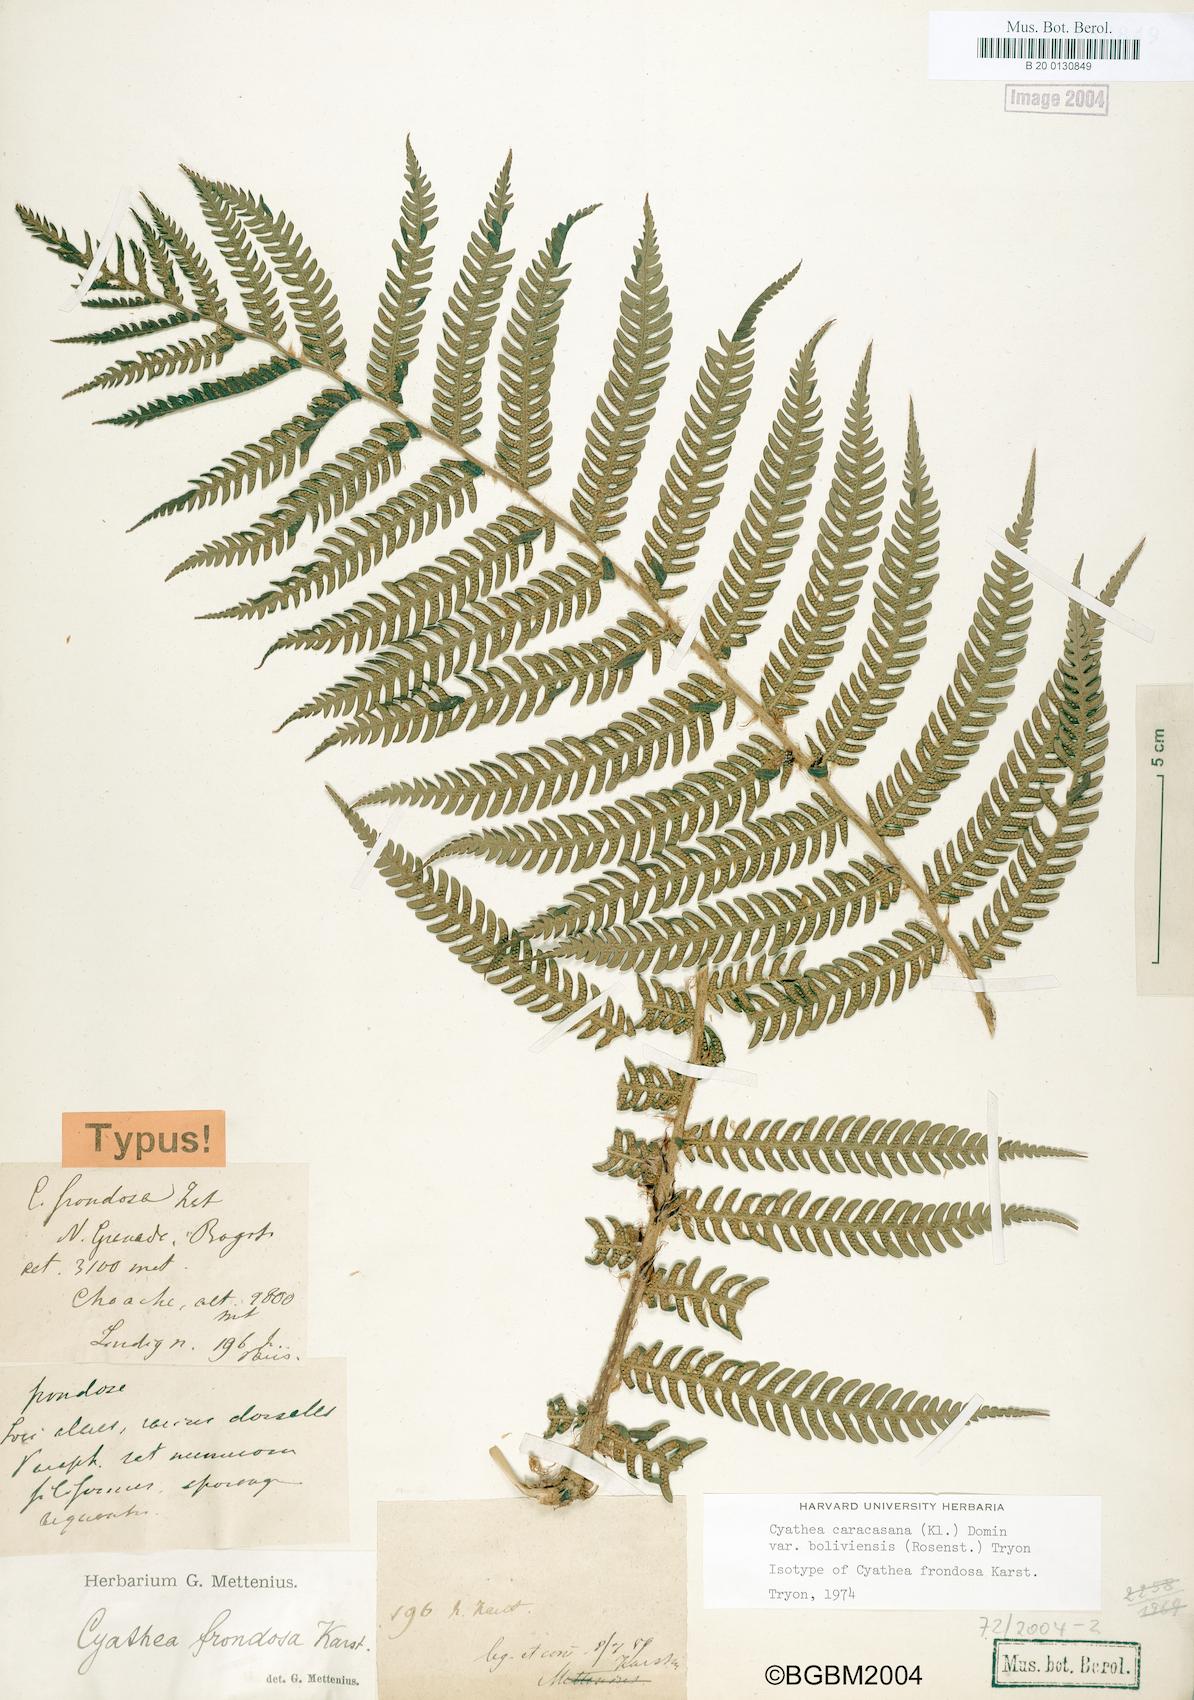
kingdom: Plantae
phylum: Tracheophyta
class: Polypodiopsida
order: Cyatheales
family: Cyatheaceae
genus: Cyathea
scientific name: Cyathea frondosa
